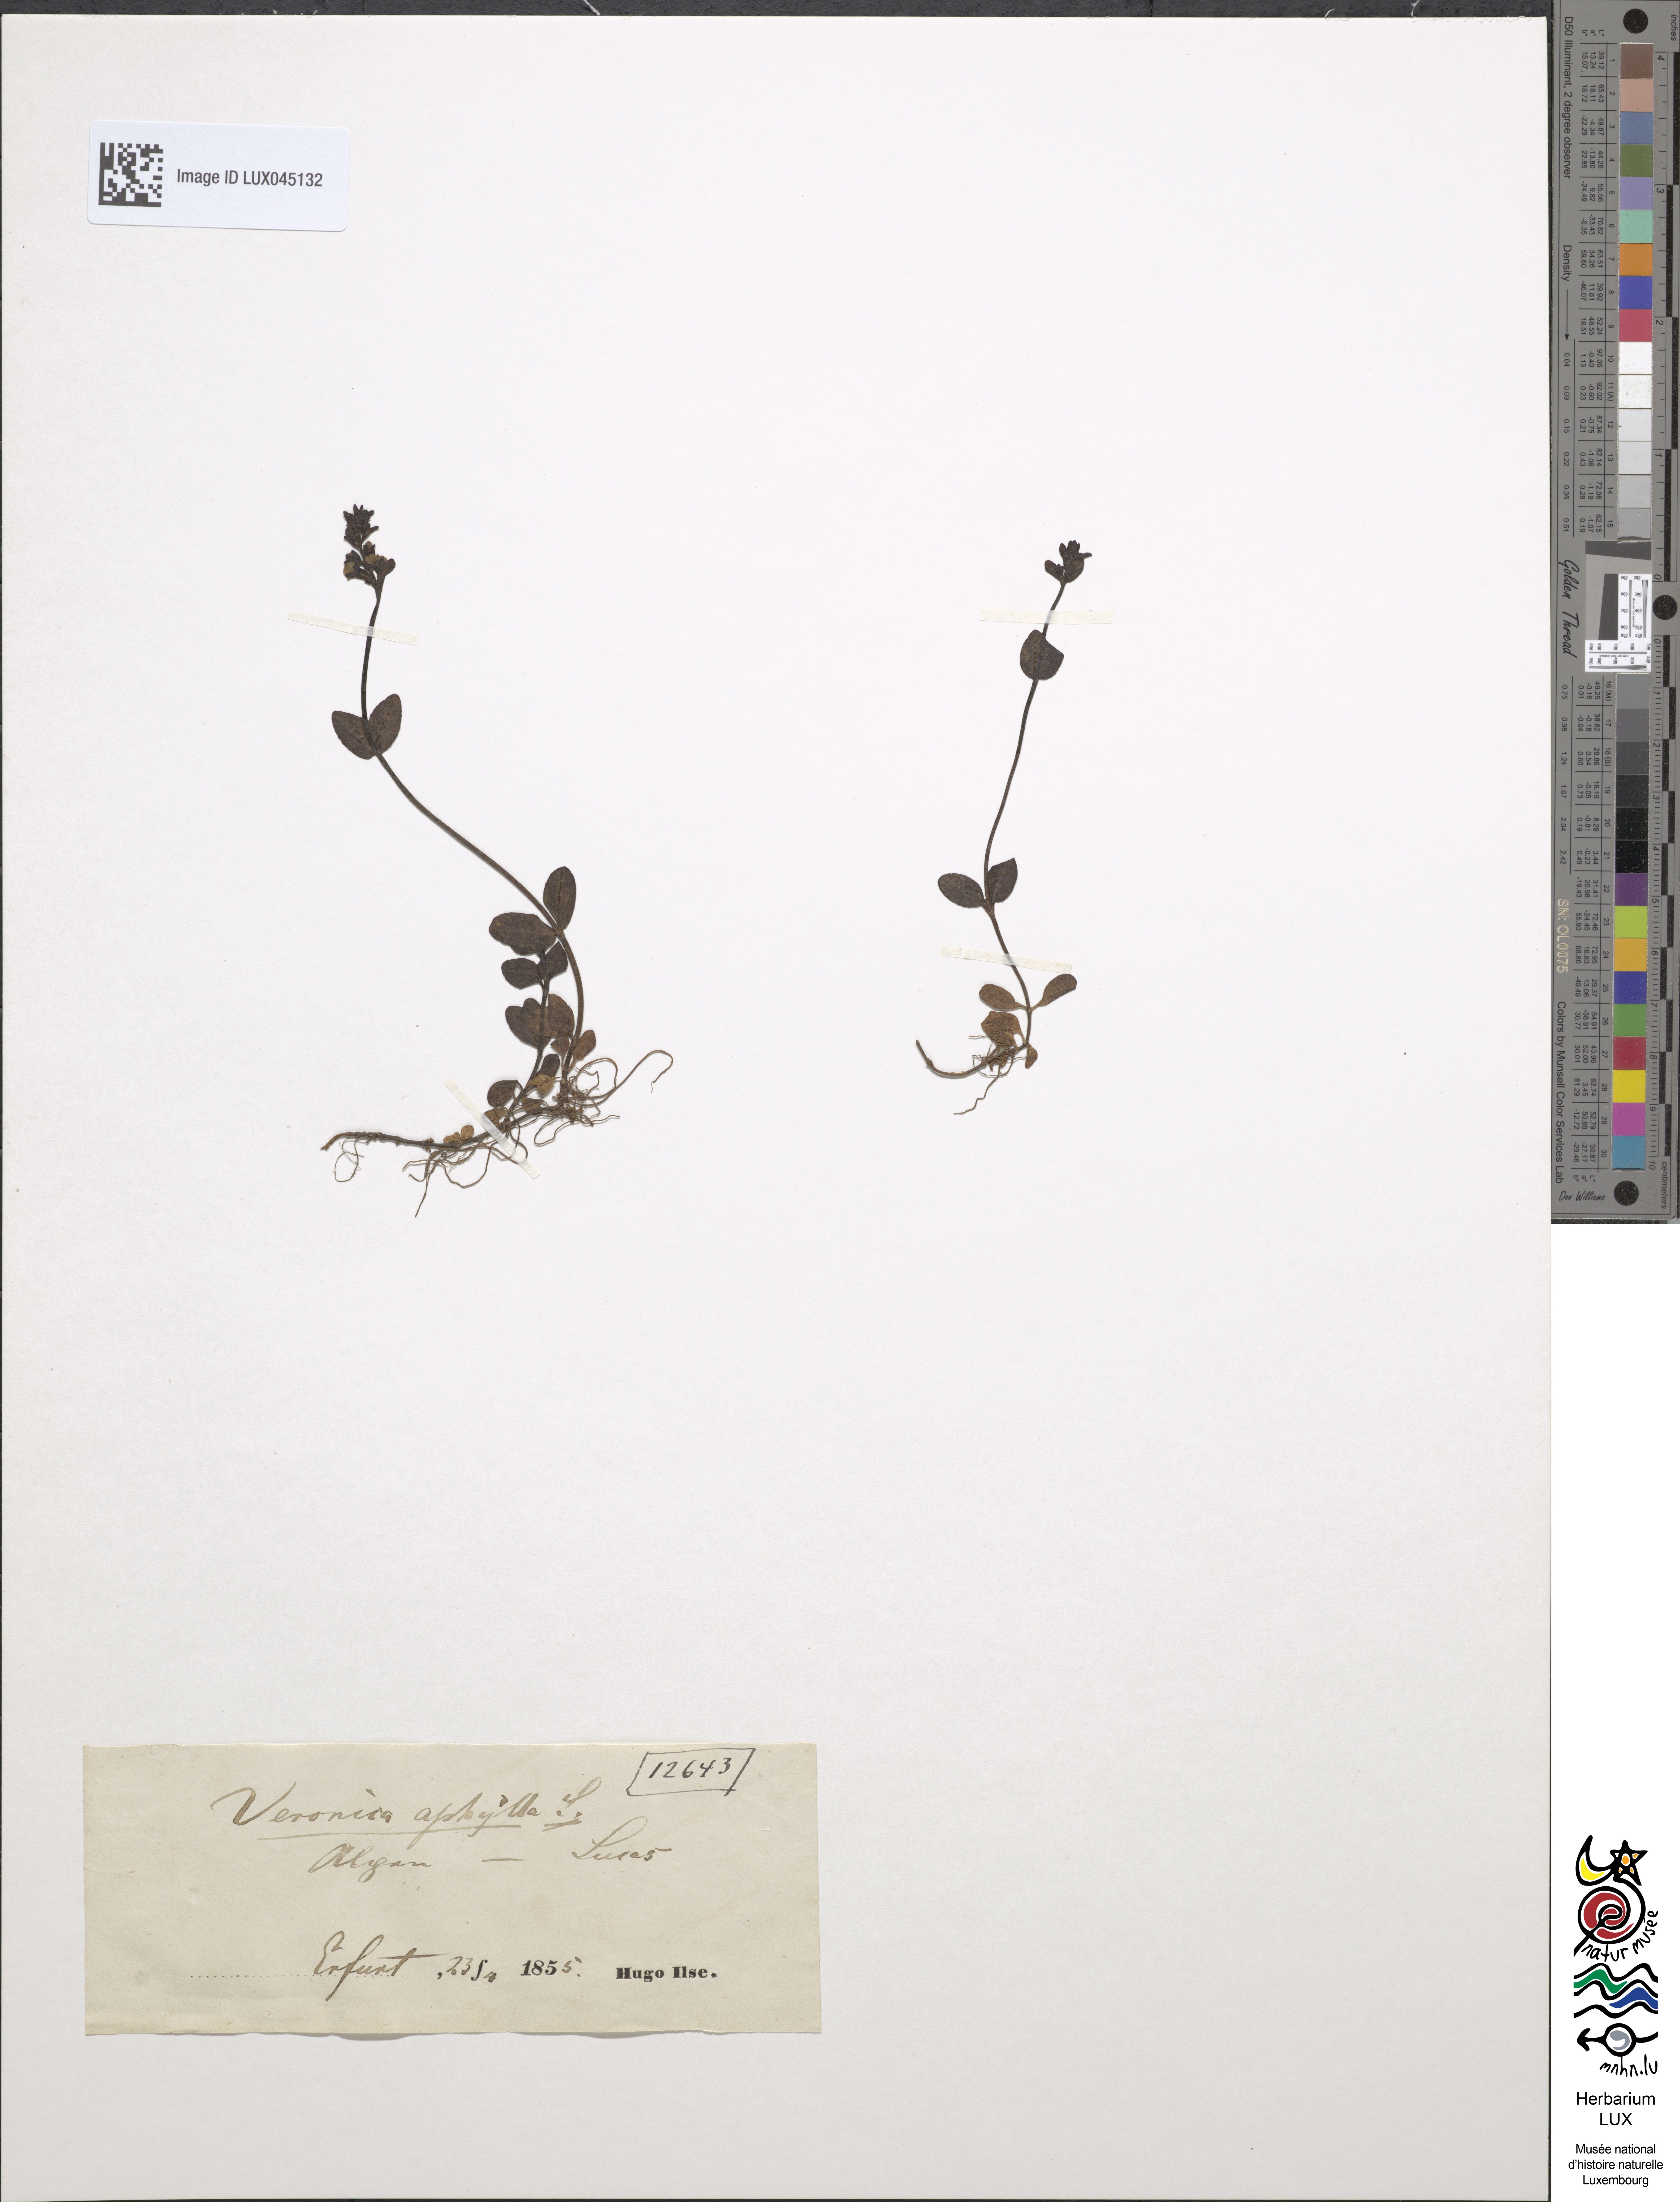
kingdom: Plantae
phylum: Tracheophyta
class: Magnoliopsida
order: Lamiales
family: Plantaginaceae
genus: Veronica
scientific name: Veronica aphylla
